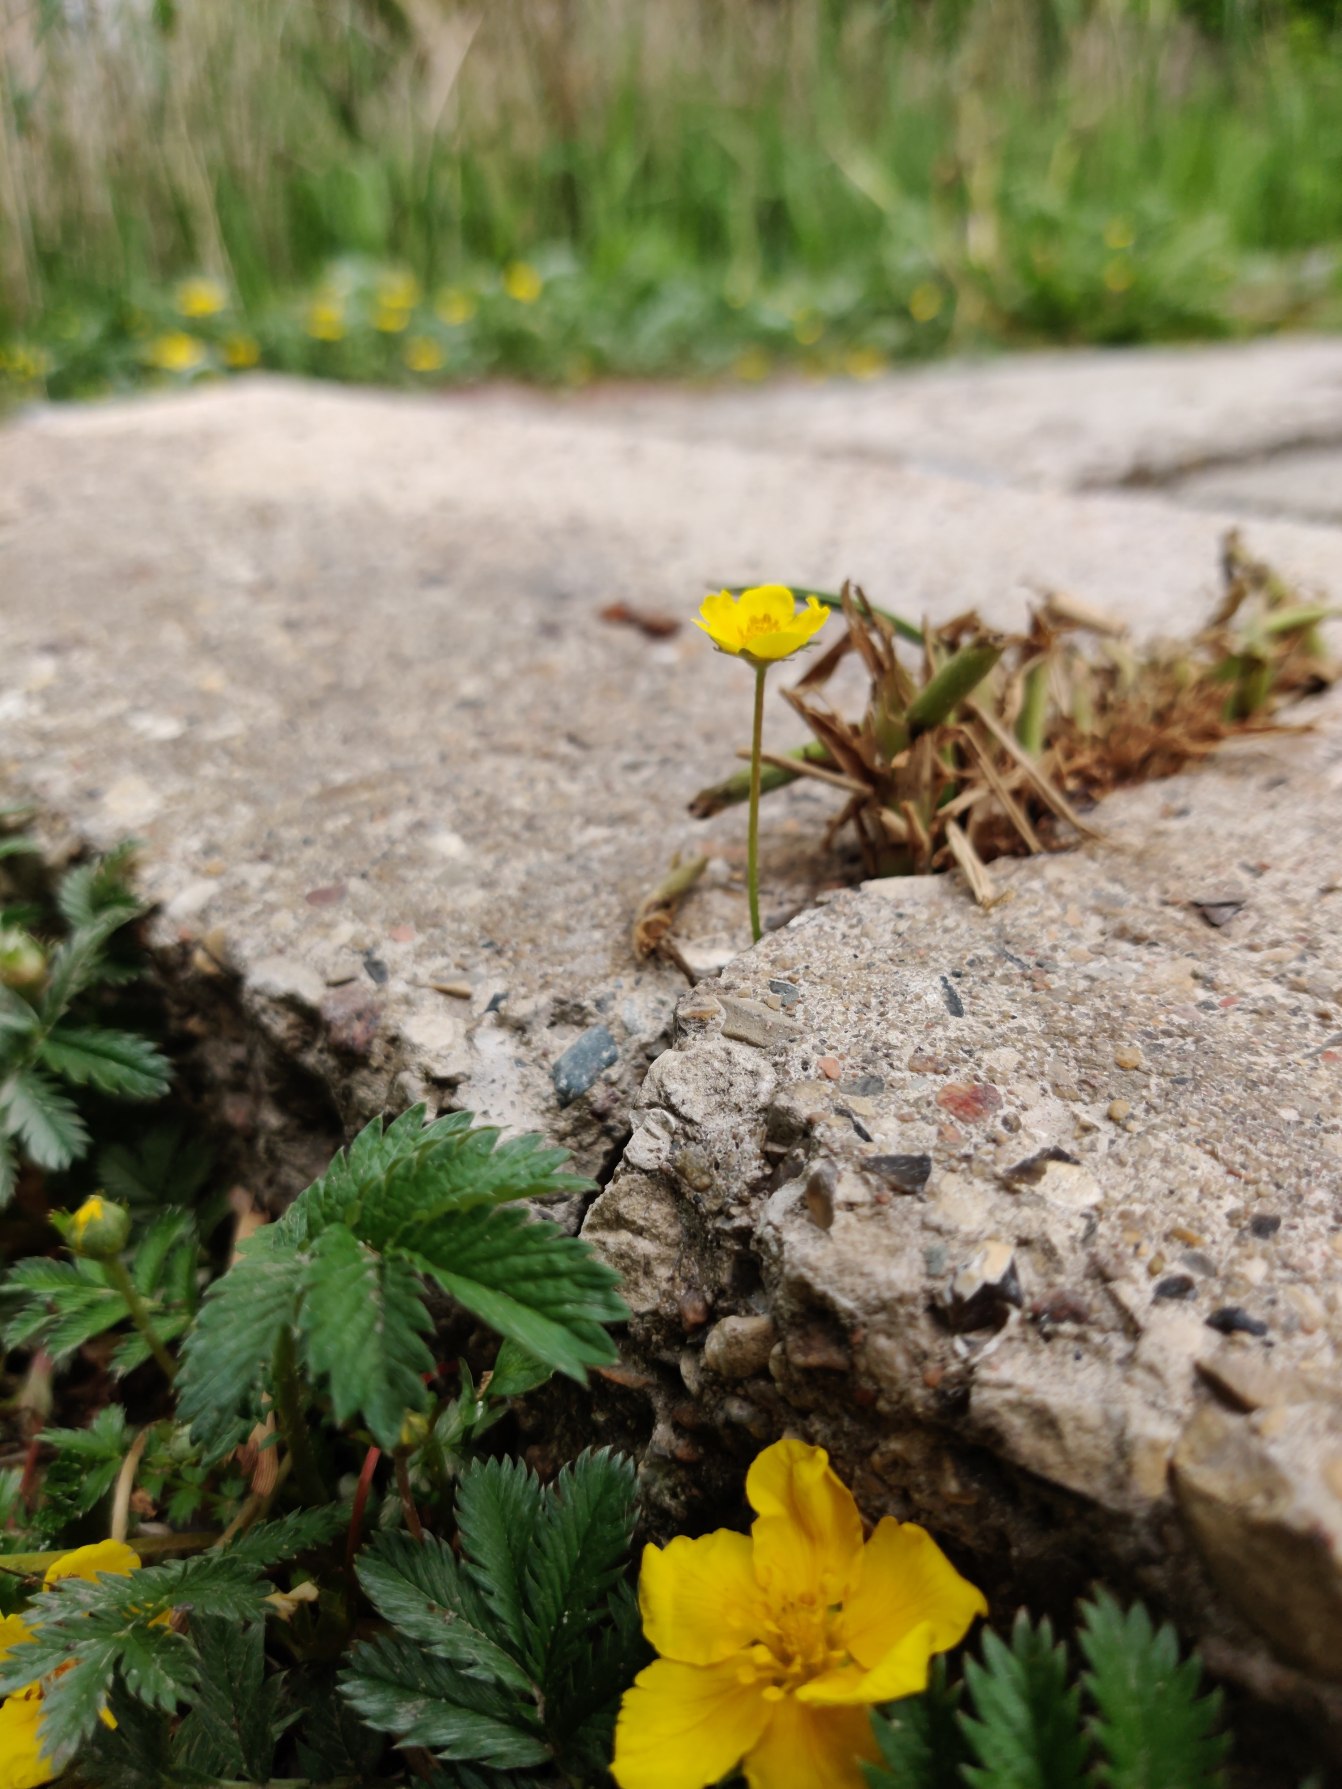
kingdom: Plantae
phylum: Tracheophyta
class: Magnoliopsida
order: Rosales
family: Rosaceae
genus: Argentina
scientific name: Argentina anserina
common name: Gåsepotentil
